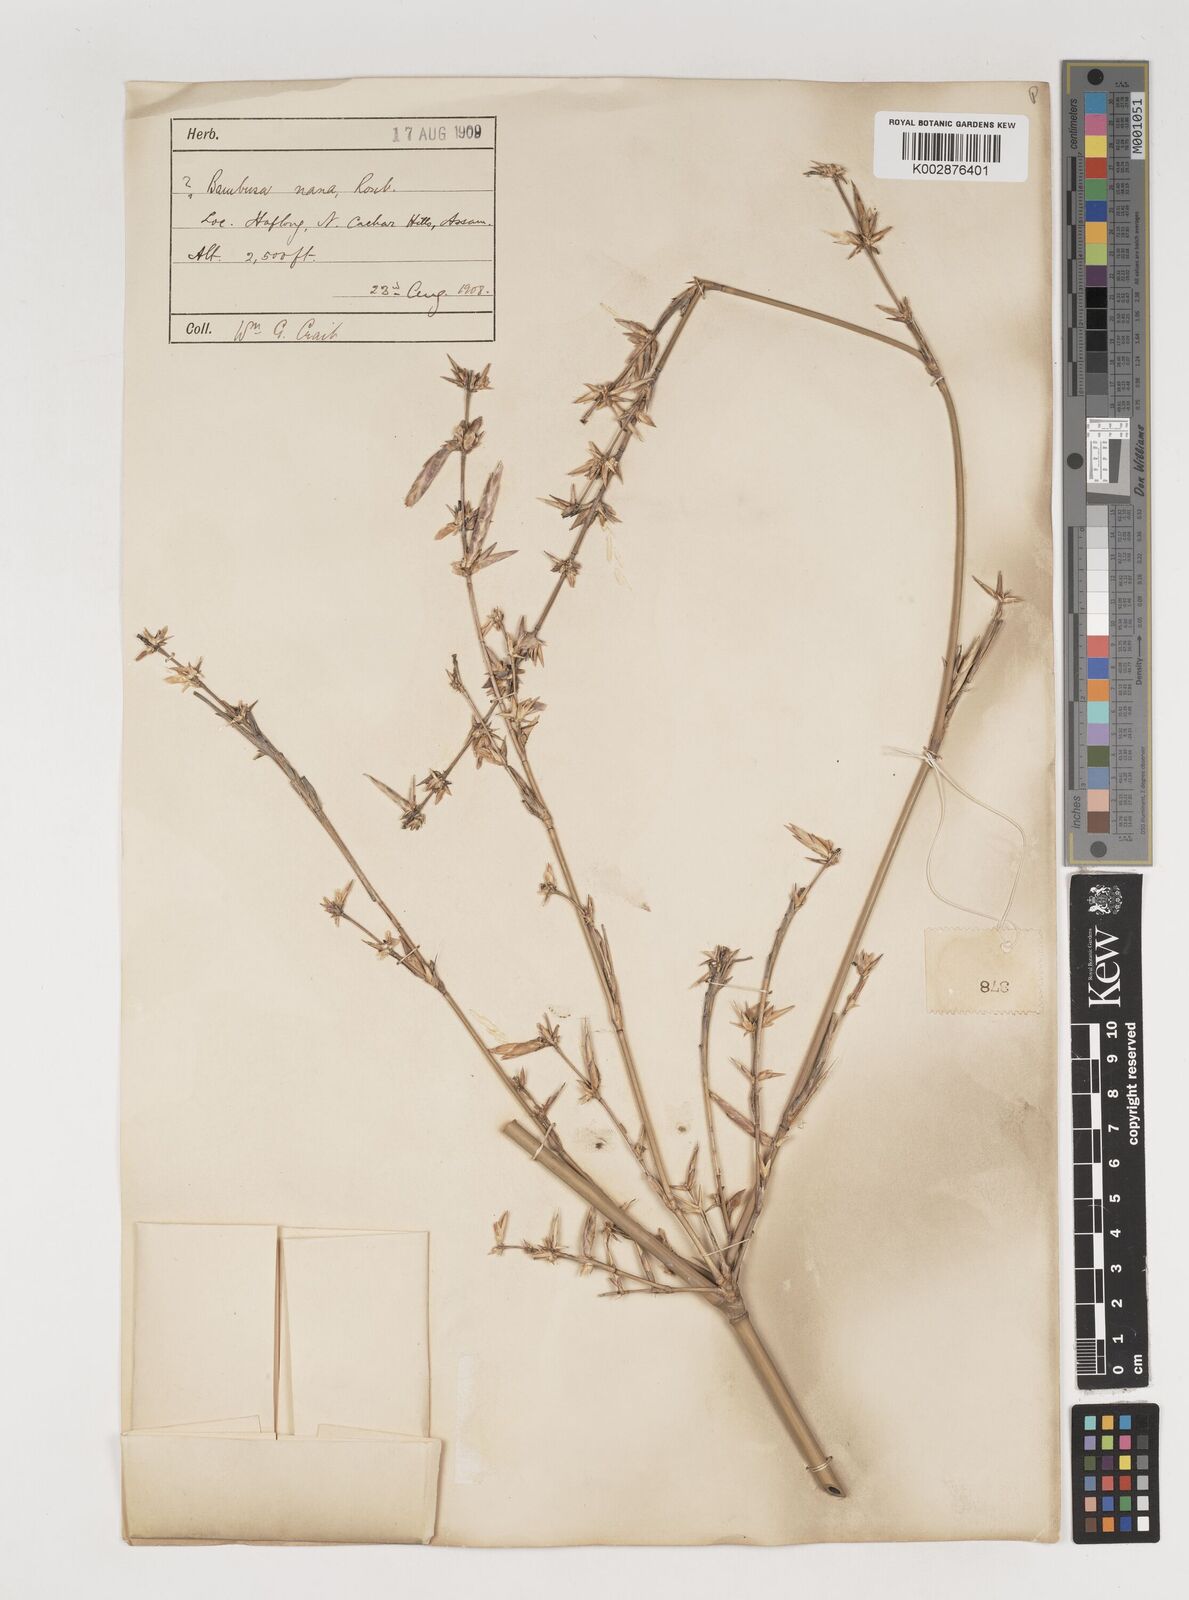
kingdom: Plantae
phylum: Tracheophyta
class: Liliopsida
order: Poales
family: Poaceae
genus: Bambusa
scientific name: Bambusa multiplex
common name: Hedge bamboo
